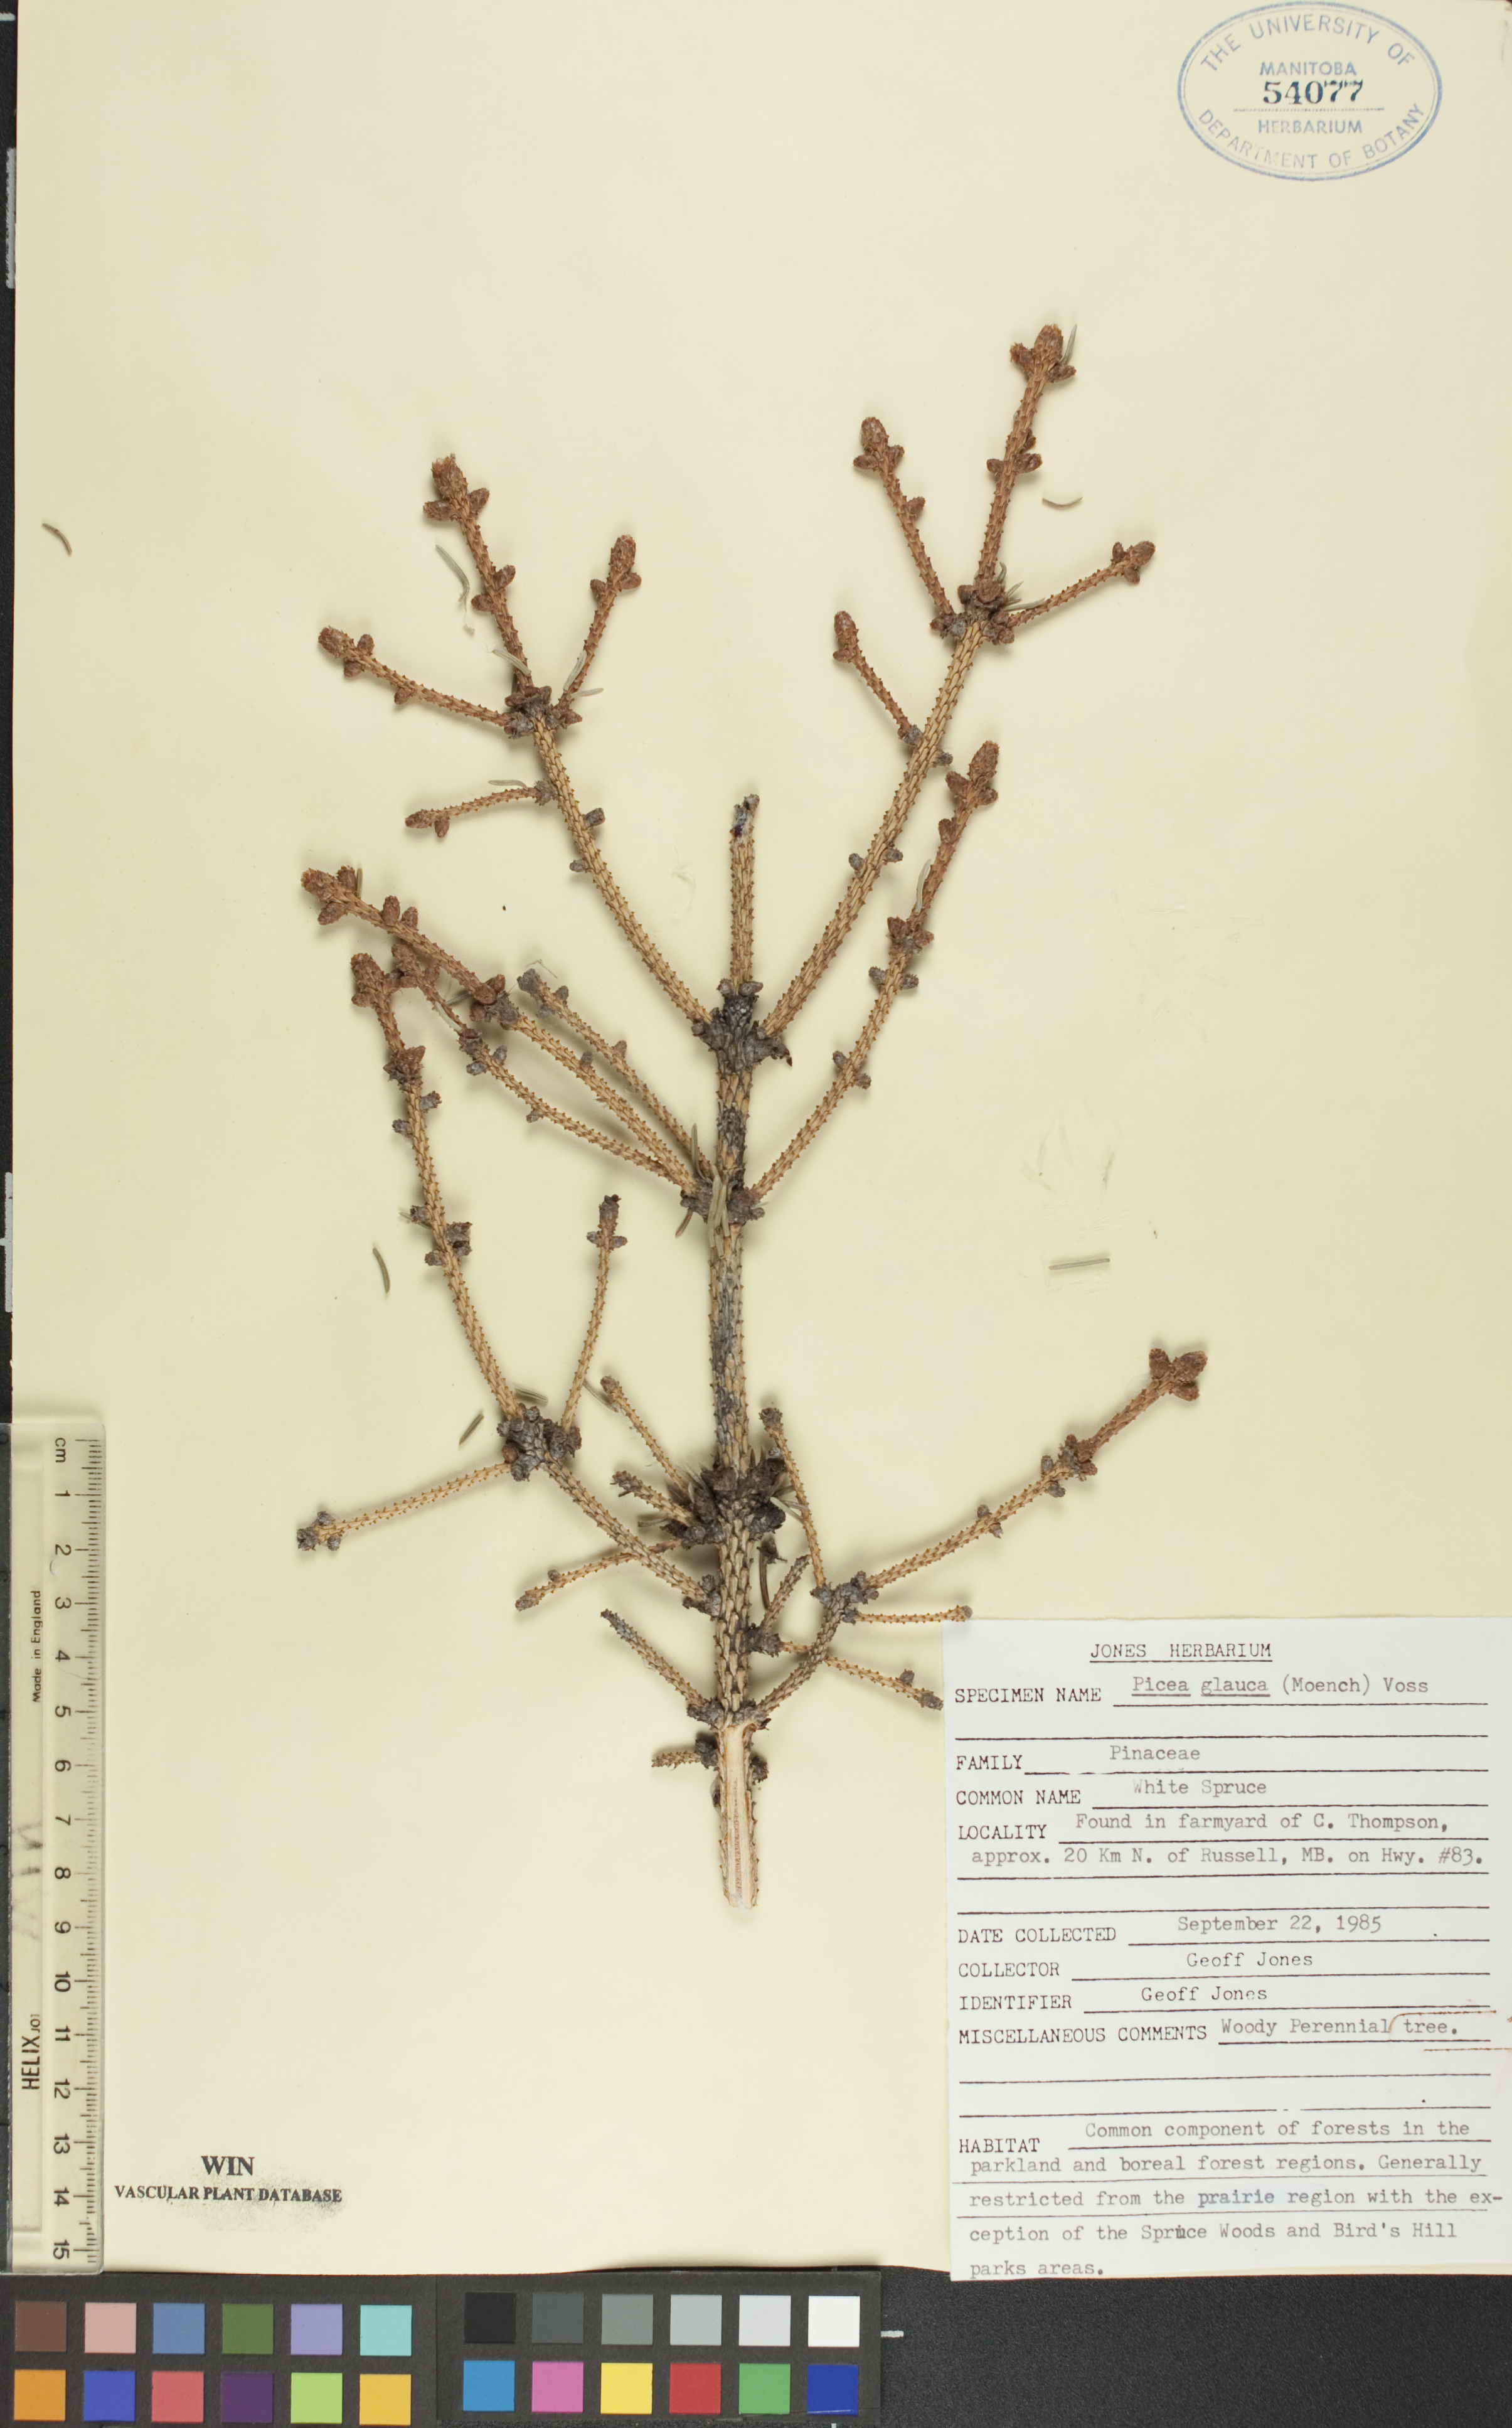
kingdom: Plantae
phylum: Tracheophyta
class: Pinopsida
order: Pinales
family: Pinaceae
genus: Picea
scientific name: Picea glauca
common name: White spruce
